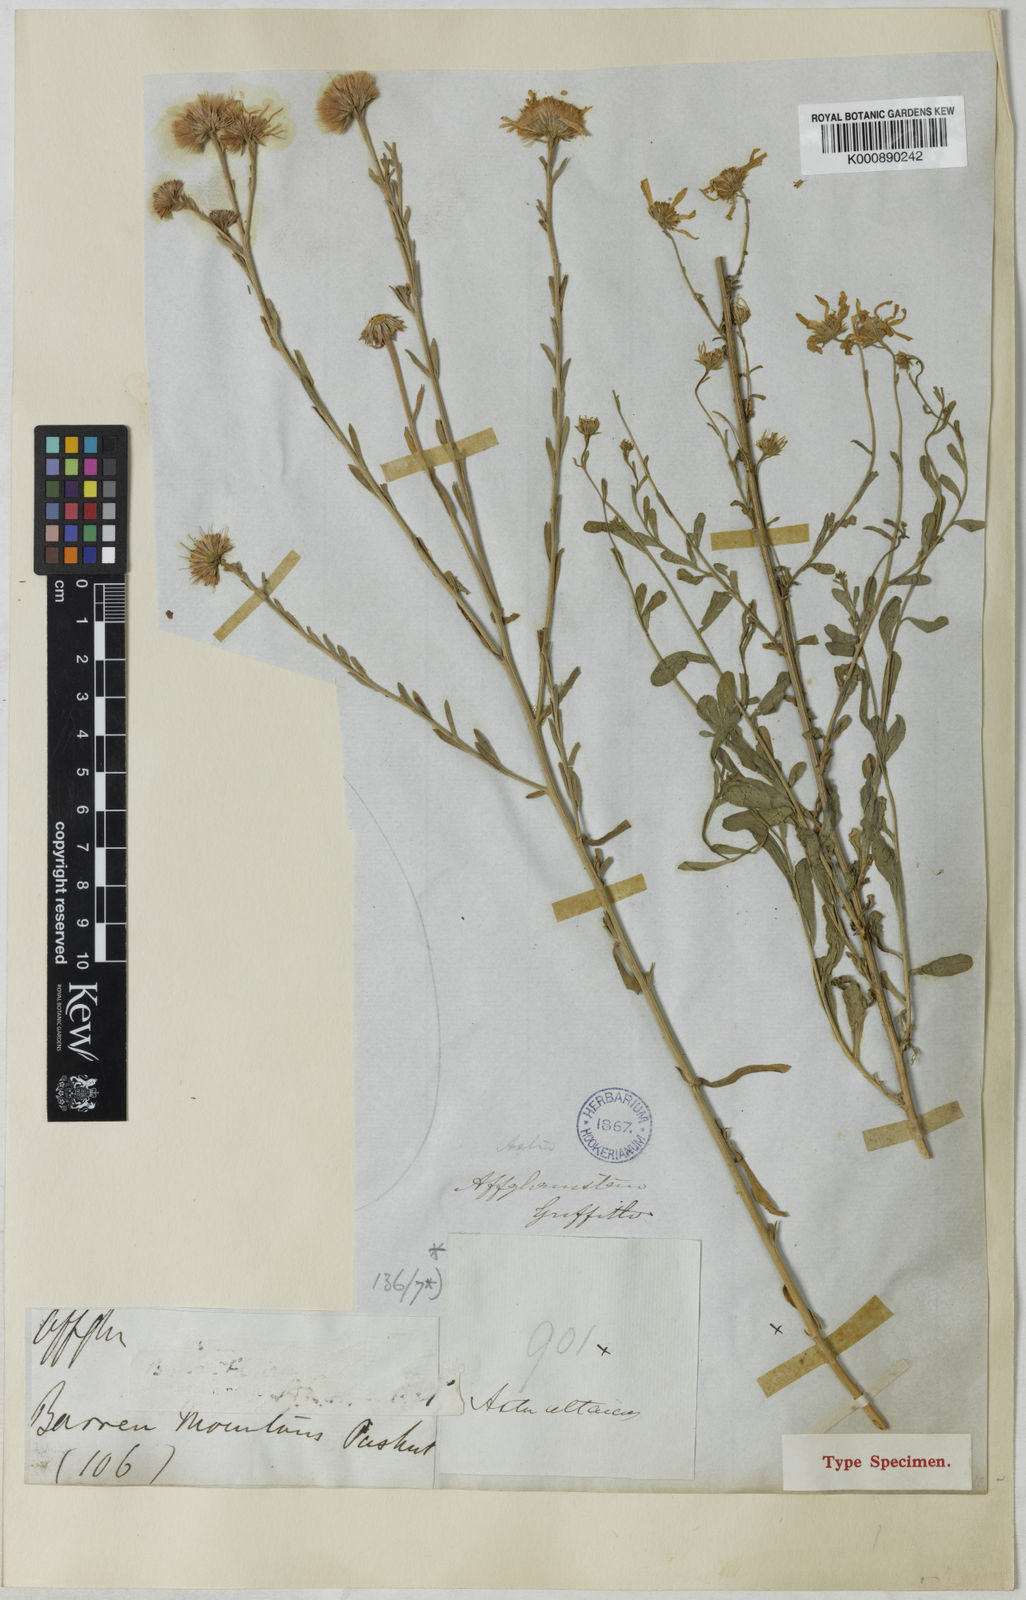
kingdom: Plantae
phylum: Tracheophyta
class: Magnoliopsida
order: Asterales
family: Asteraceae
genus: Heteropappus
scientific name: Heteropappus altaicus
